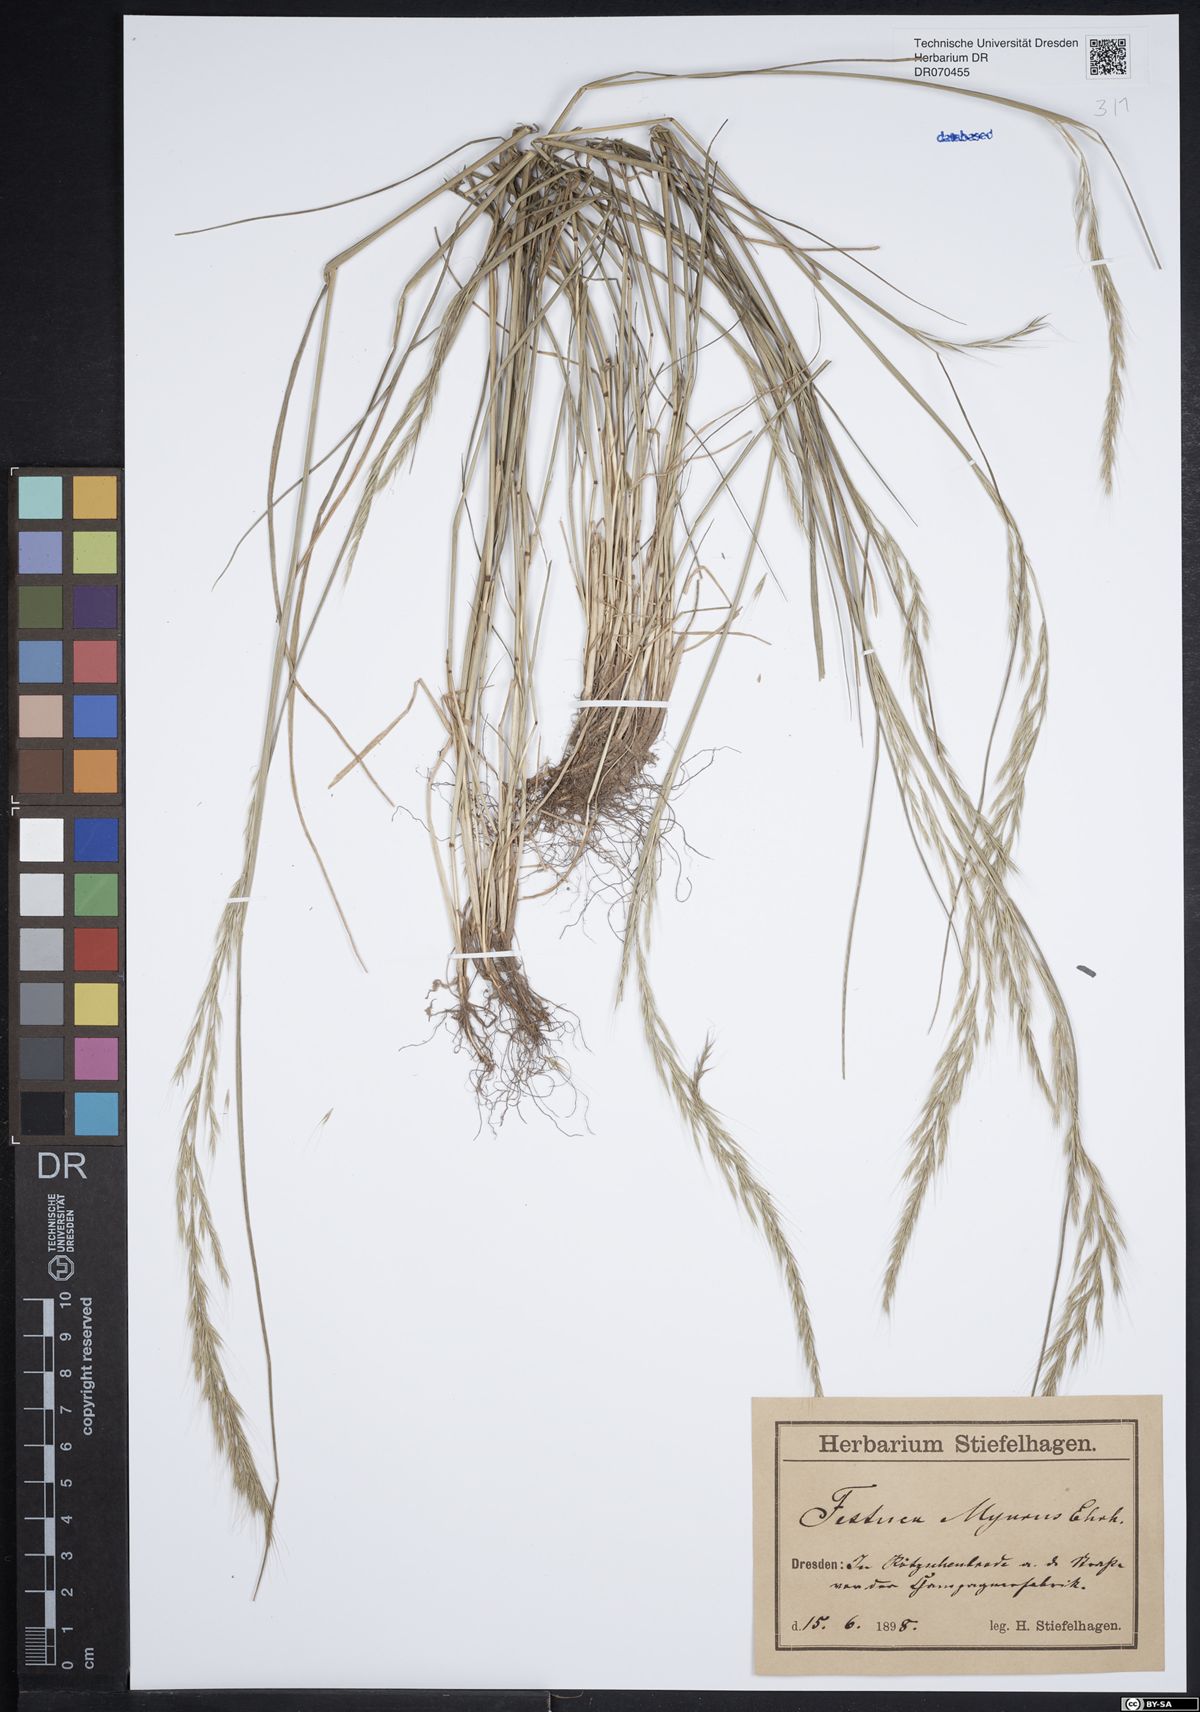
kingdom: Plantae
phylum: Tracheophyta
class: Liliopsida
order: Poales
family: Poaceae
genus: Festuca
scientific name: Festuca myuros
